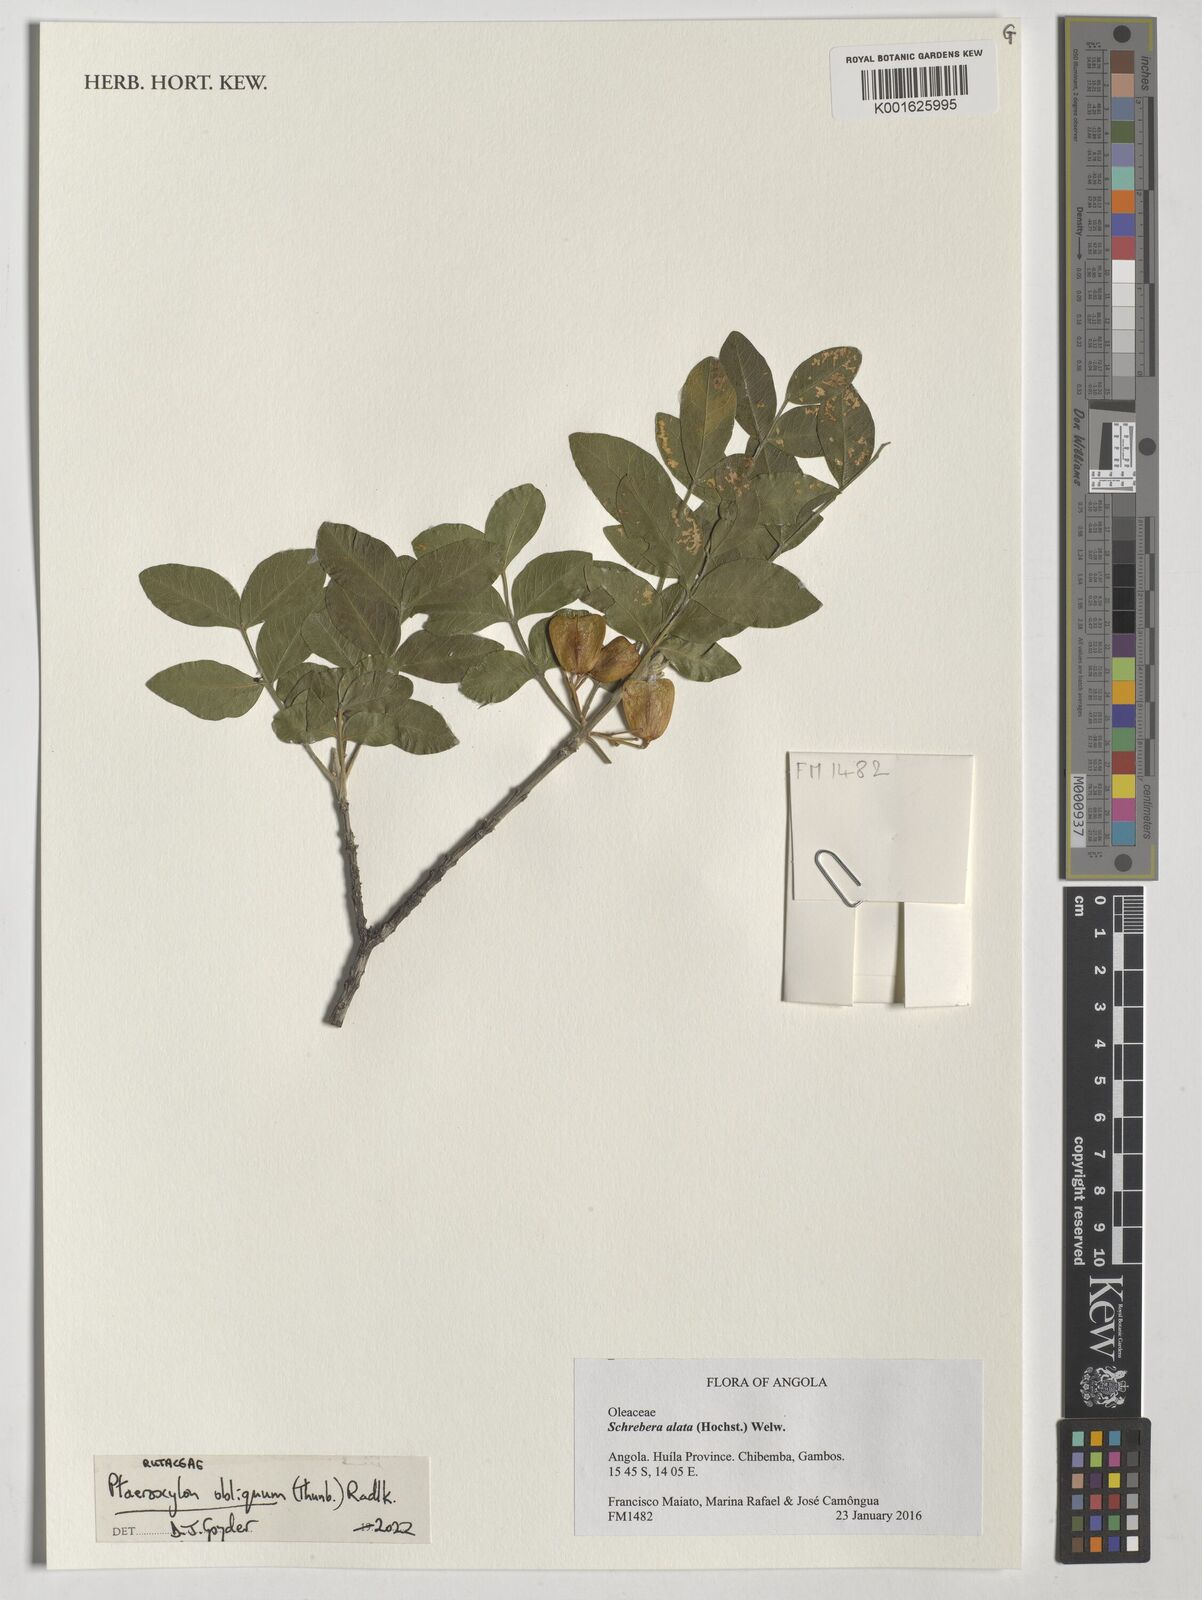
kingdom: Plantae
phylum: Tracheophyta
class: Magnoliopsida
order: Sapindales
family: Rutaceae
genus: Ptaeroxylon
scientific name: Ptaeroxylon obliquum
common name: Sneezewood
